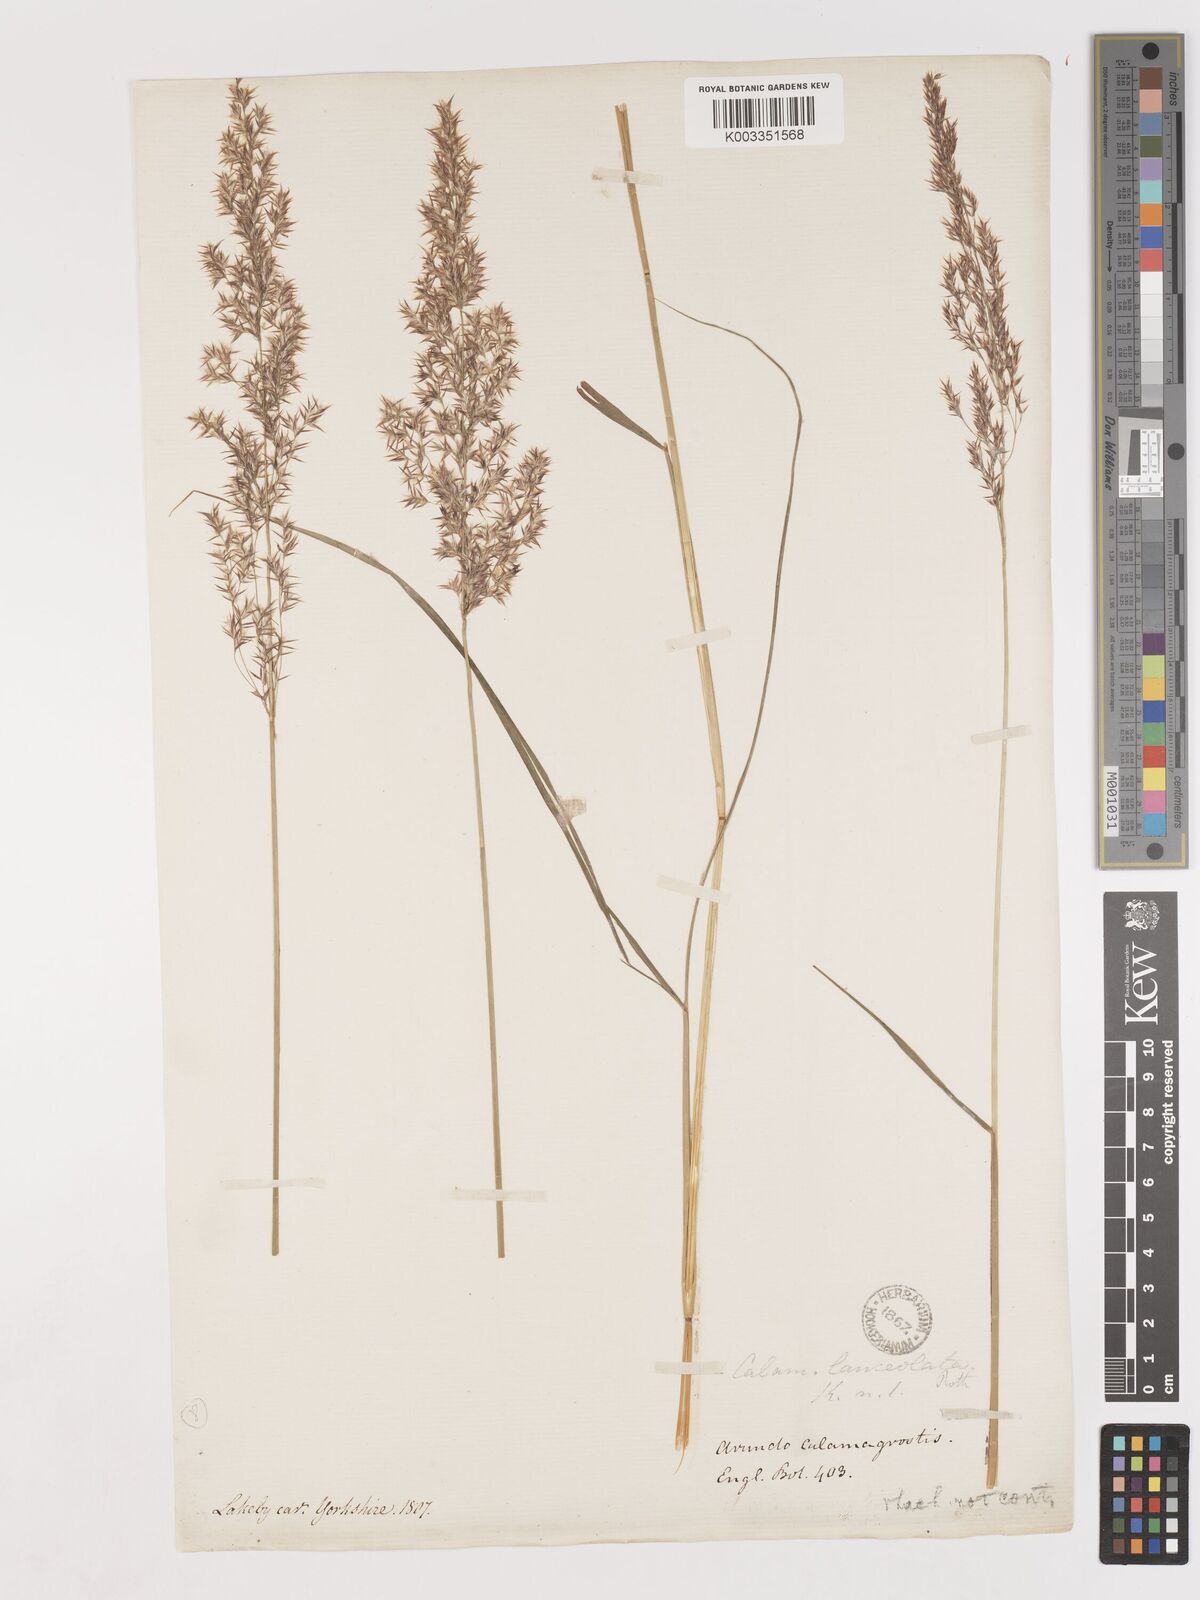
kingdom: Plantae
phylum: Tracheophyta
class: Liliopsida
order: Poales
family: Poaceae
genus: Calamagrostis
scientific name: Calamagrostis canescens
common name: Purple small-reed
